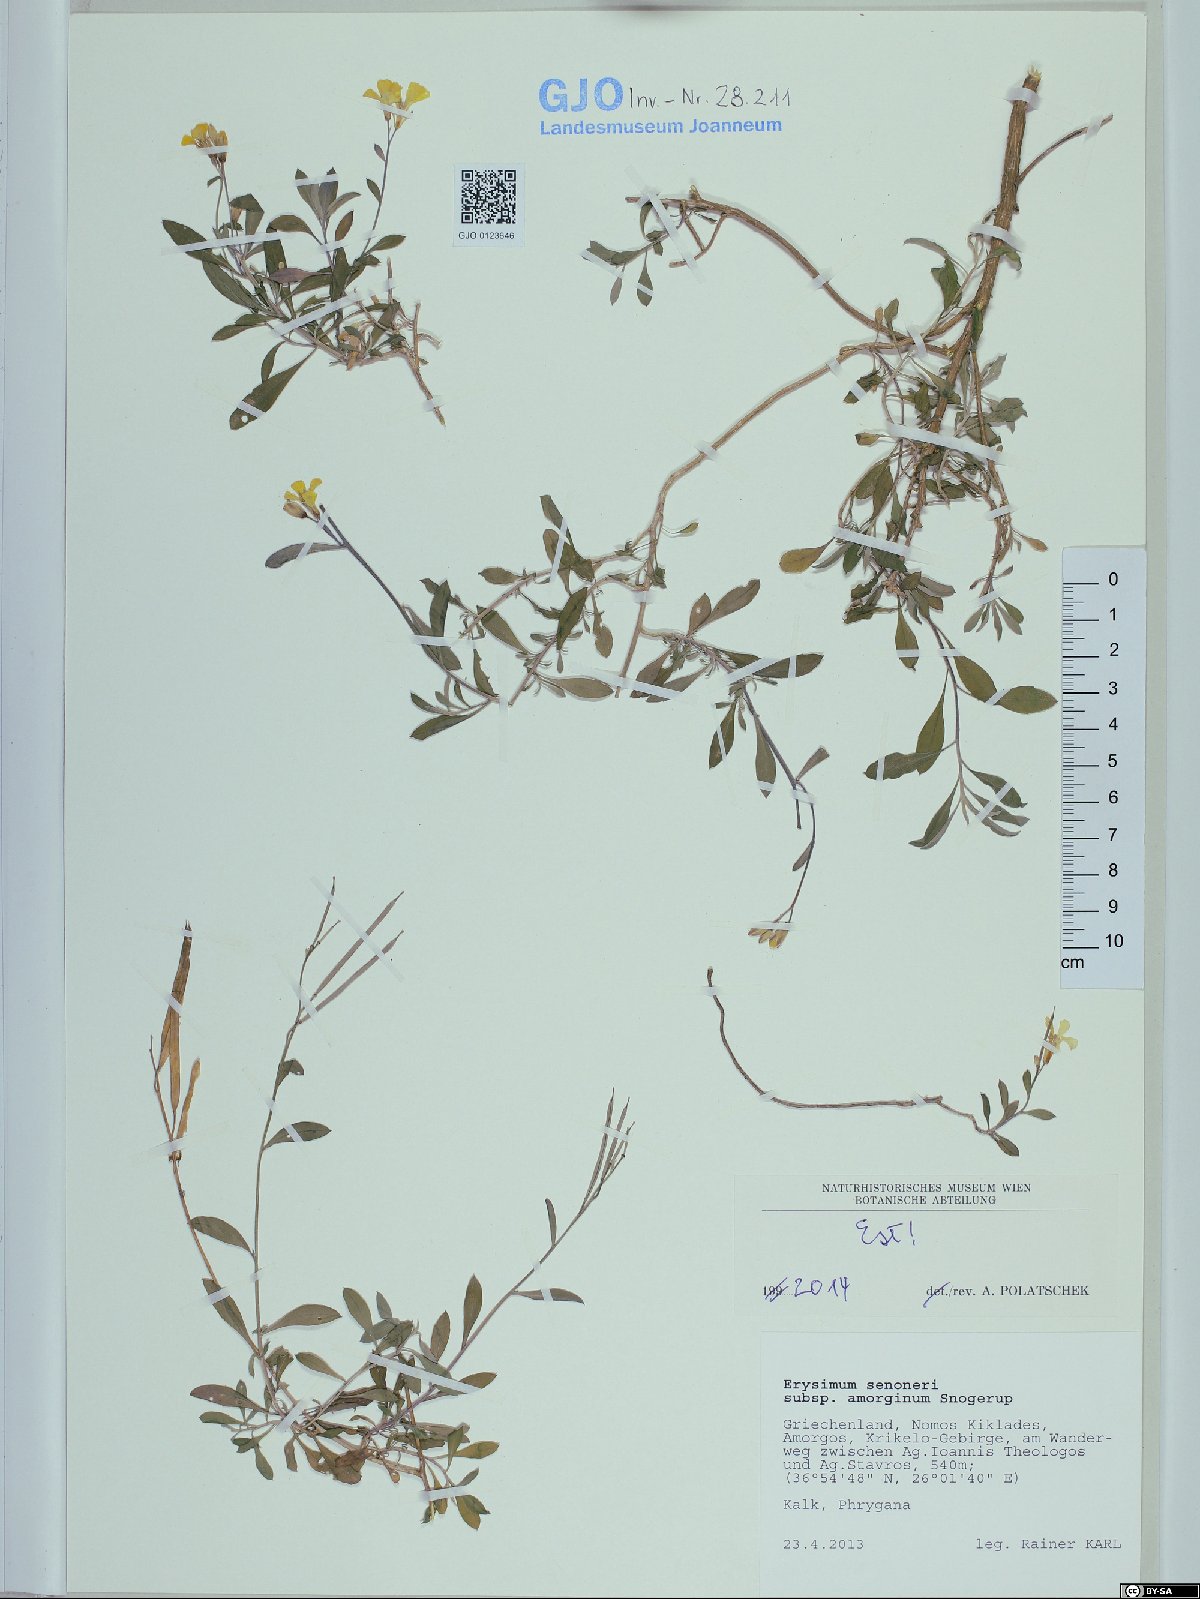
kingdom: Plantae
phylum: Tracheophyta
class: Magnoliopsida
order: Brassicales
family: Brassicaceae
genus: Erysimum
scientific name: Erysimum senoneri
